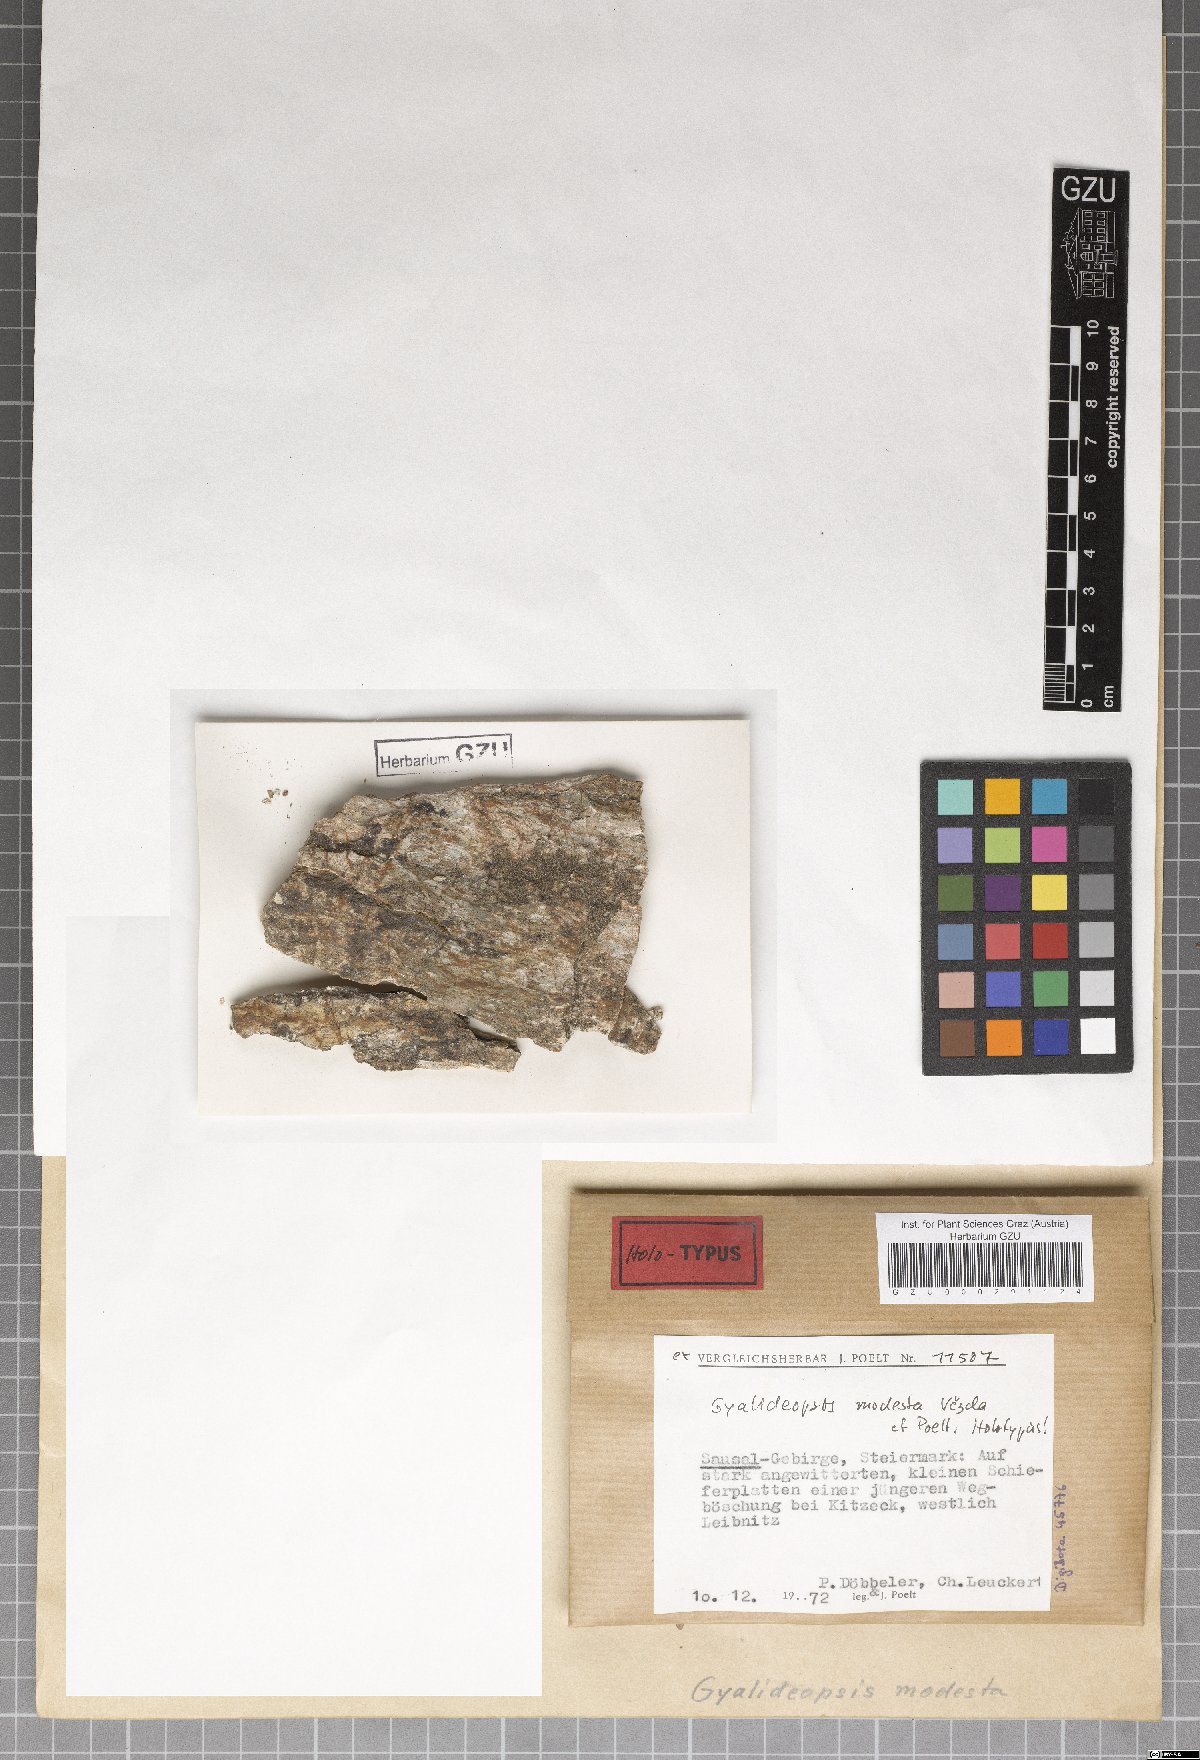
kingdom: Fungi
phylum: Ascomycota
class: Lecanoromycetes
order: Ostropales
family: Gomphillaceae
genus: Gyalideopsis
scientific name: Gyalideopsis
